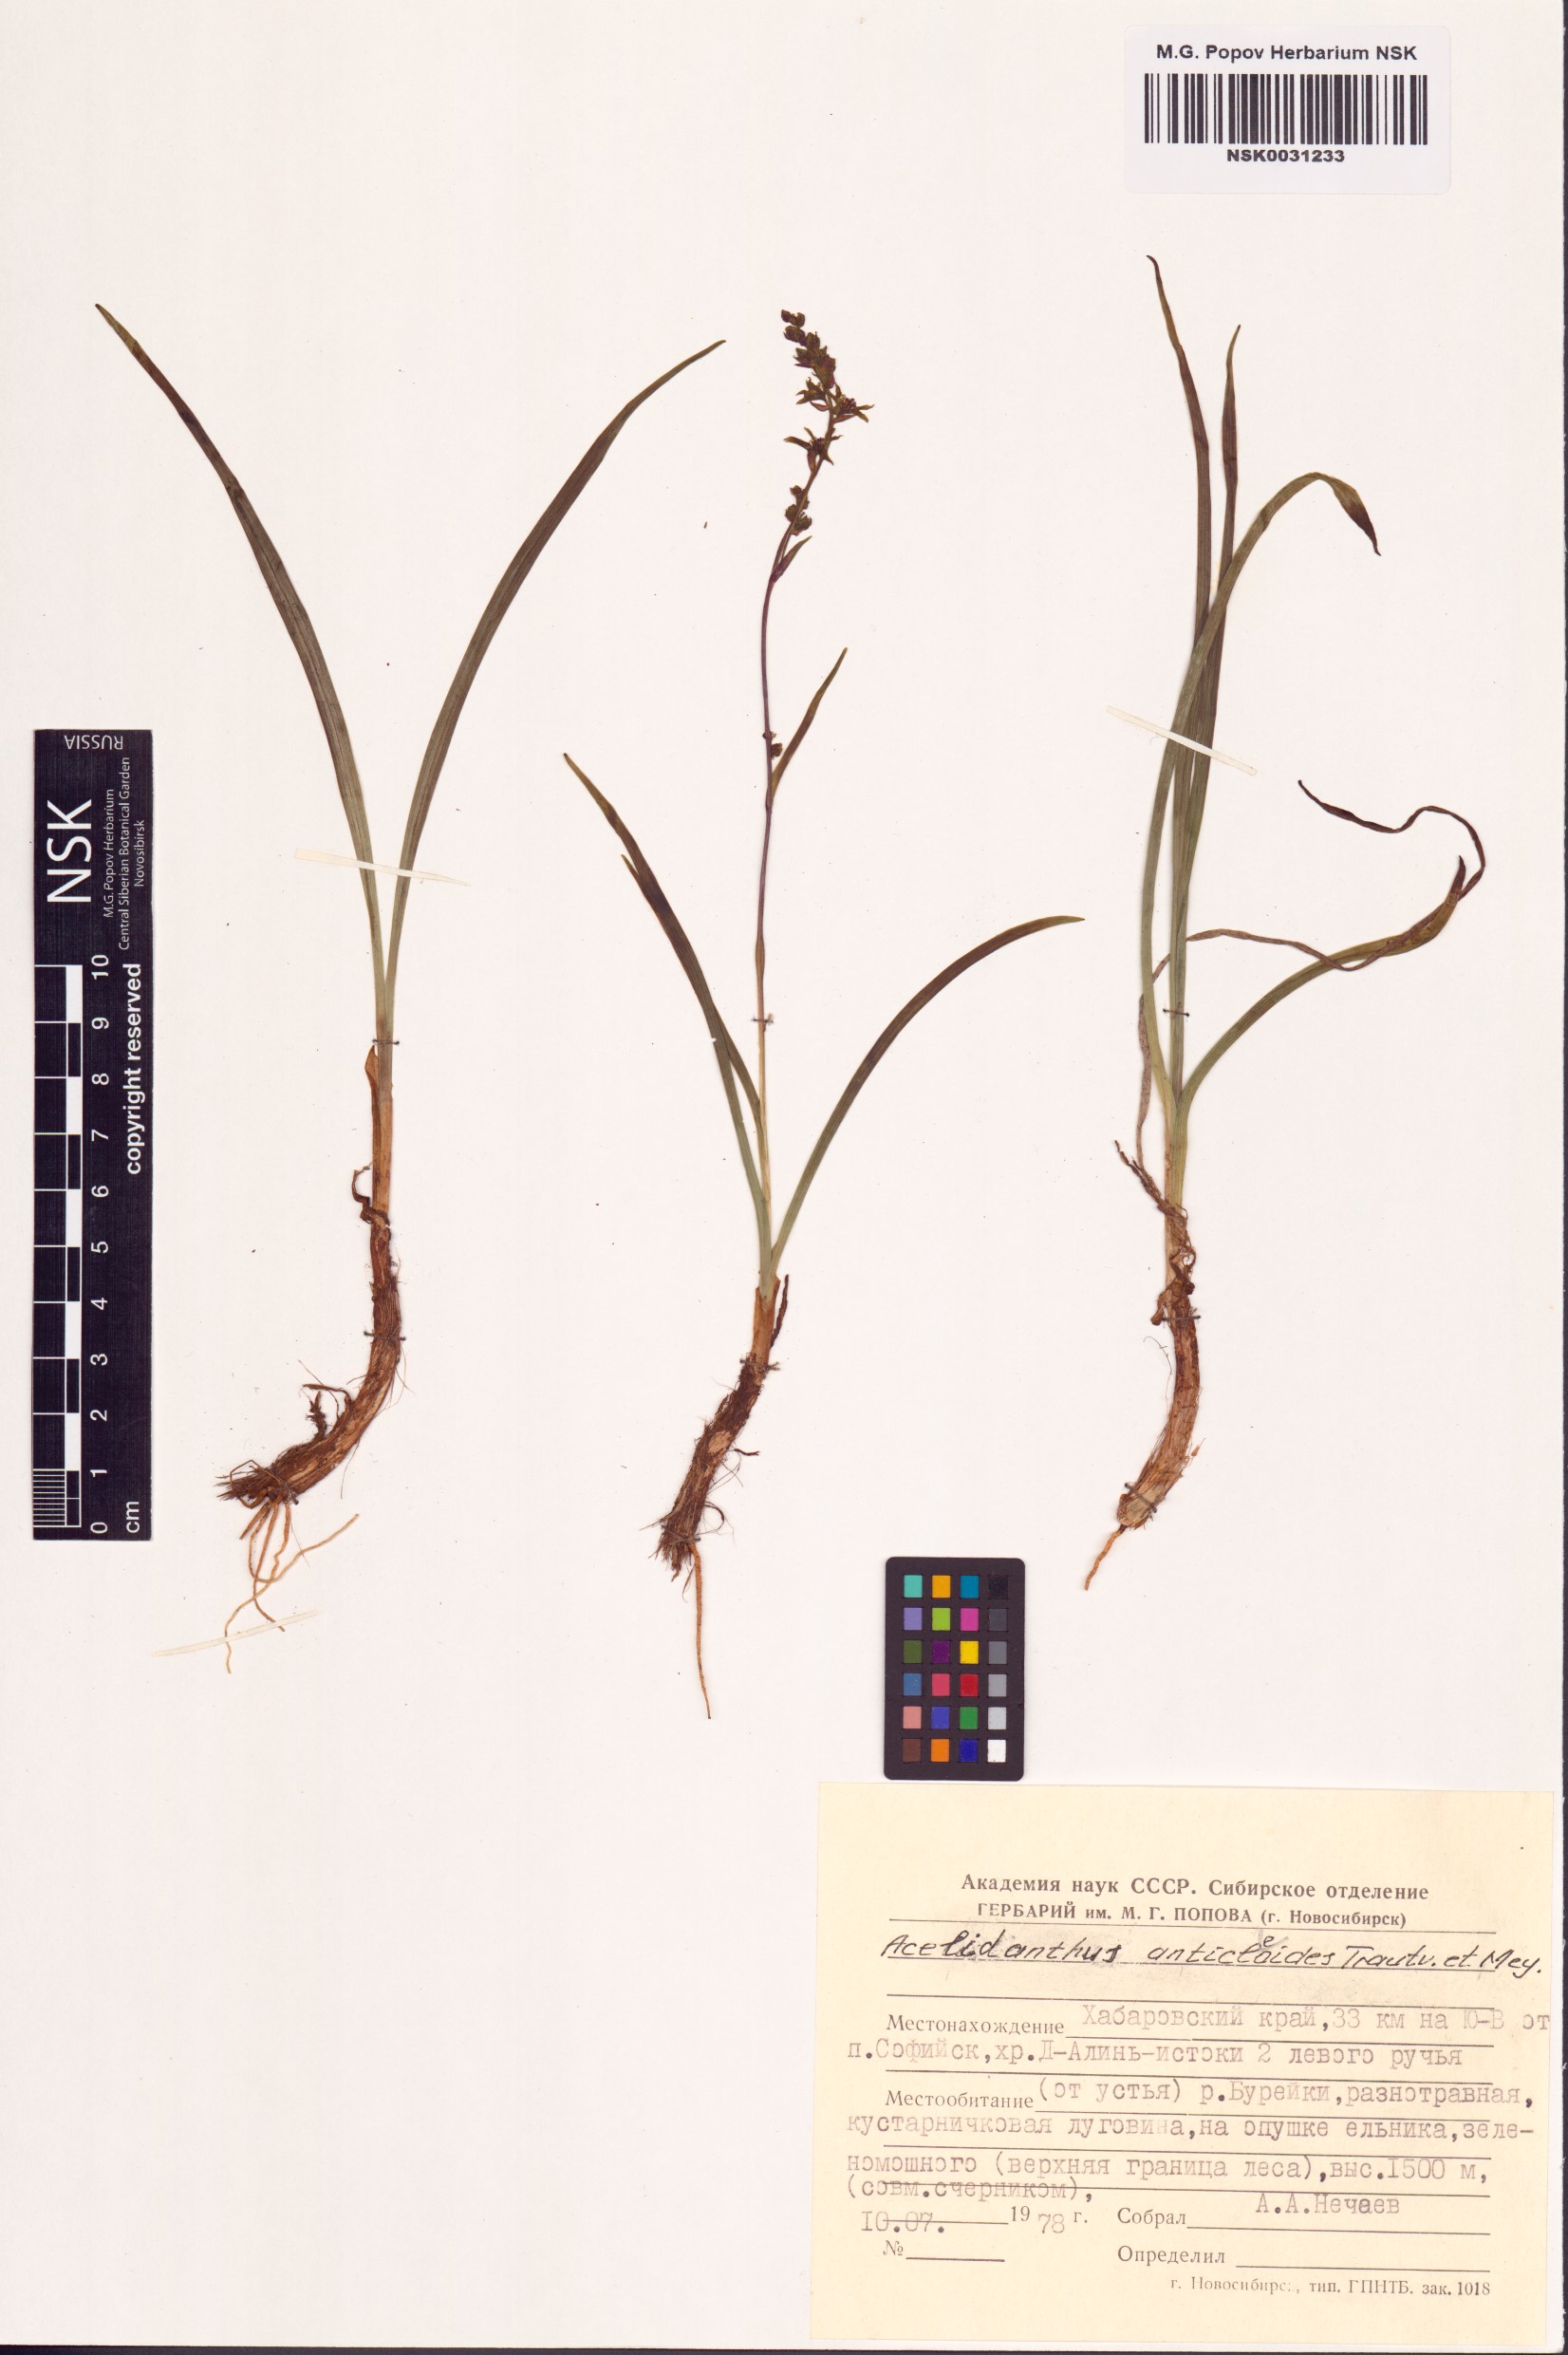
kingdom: Plantae
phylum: Tracheophyta
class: Liliopsida
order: Liliales
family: Melanthiaceae
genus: Veratrum
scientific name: Veratrum anticleoides
